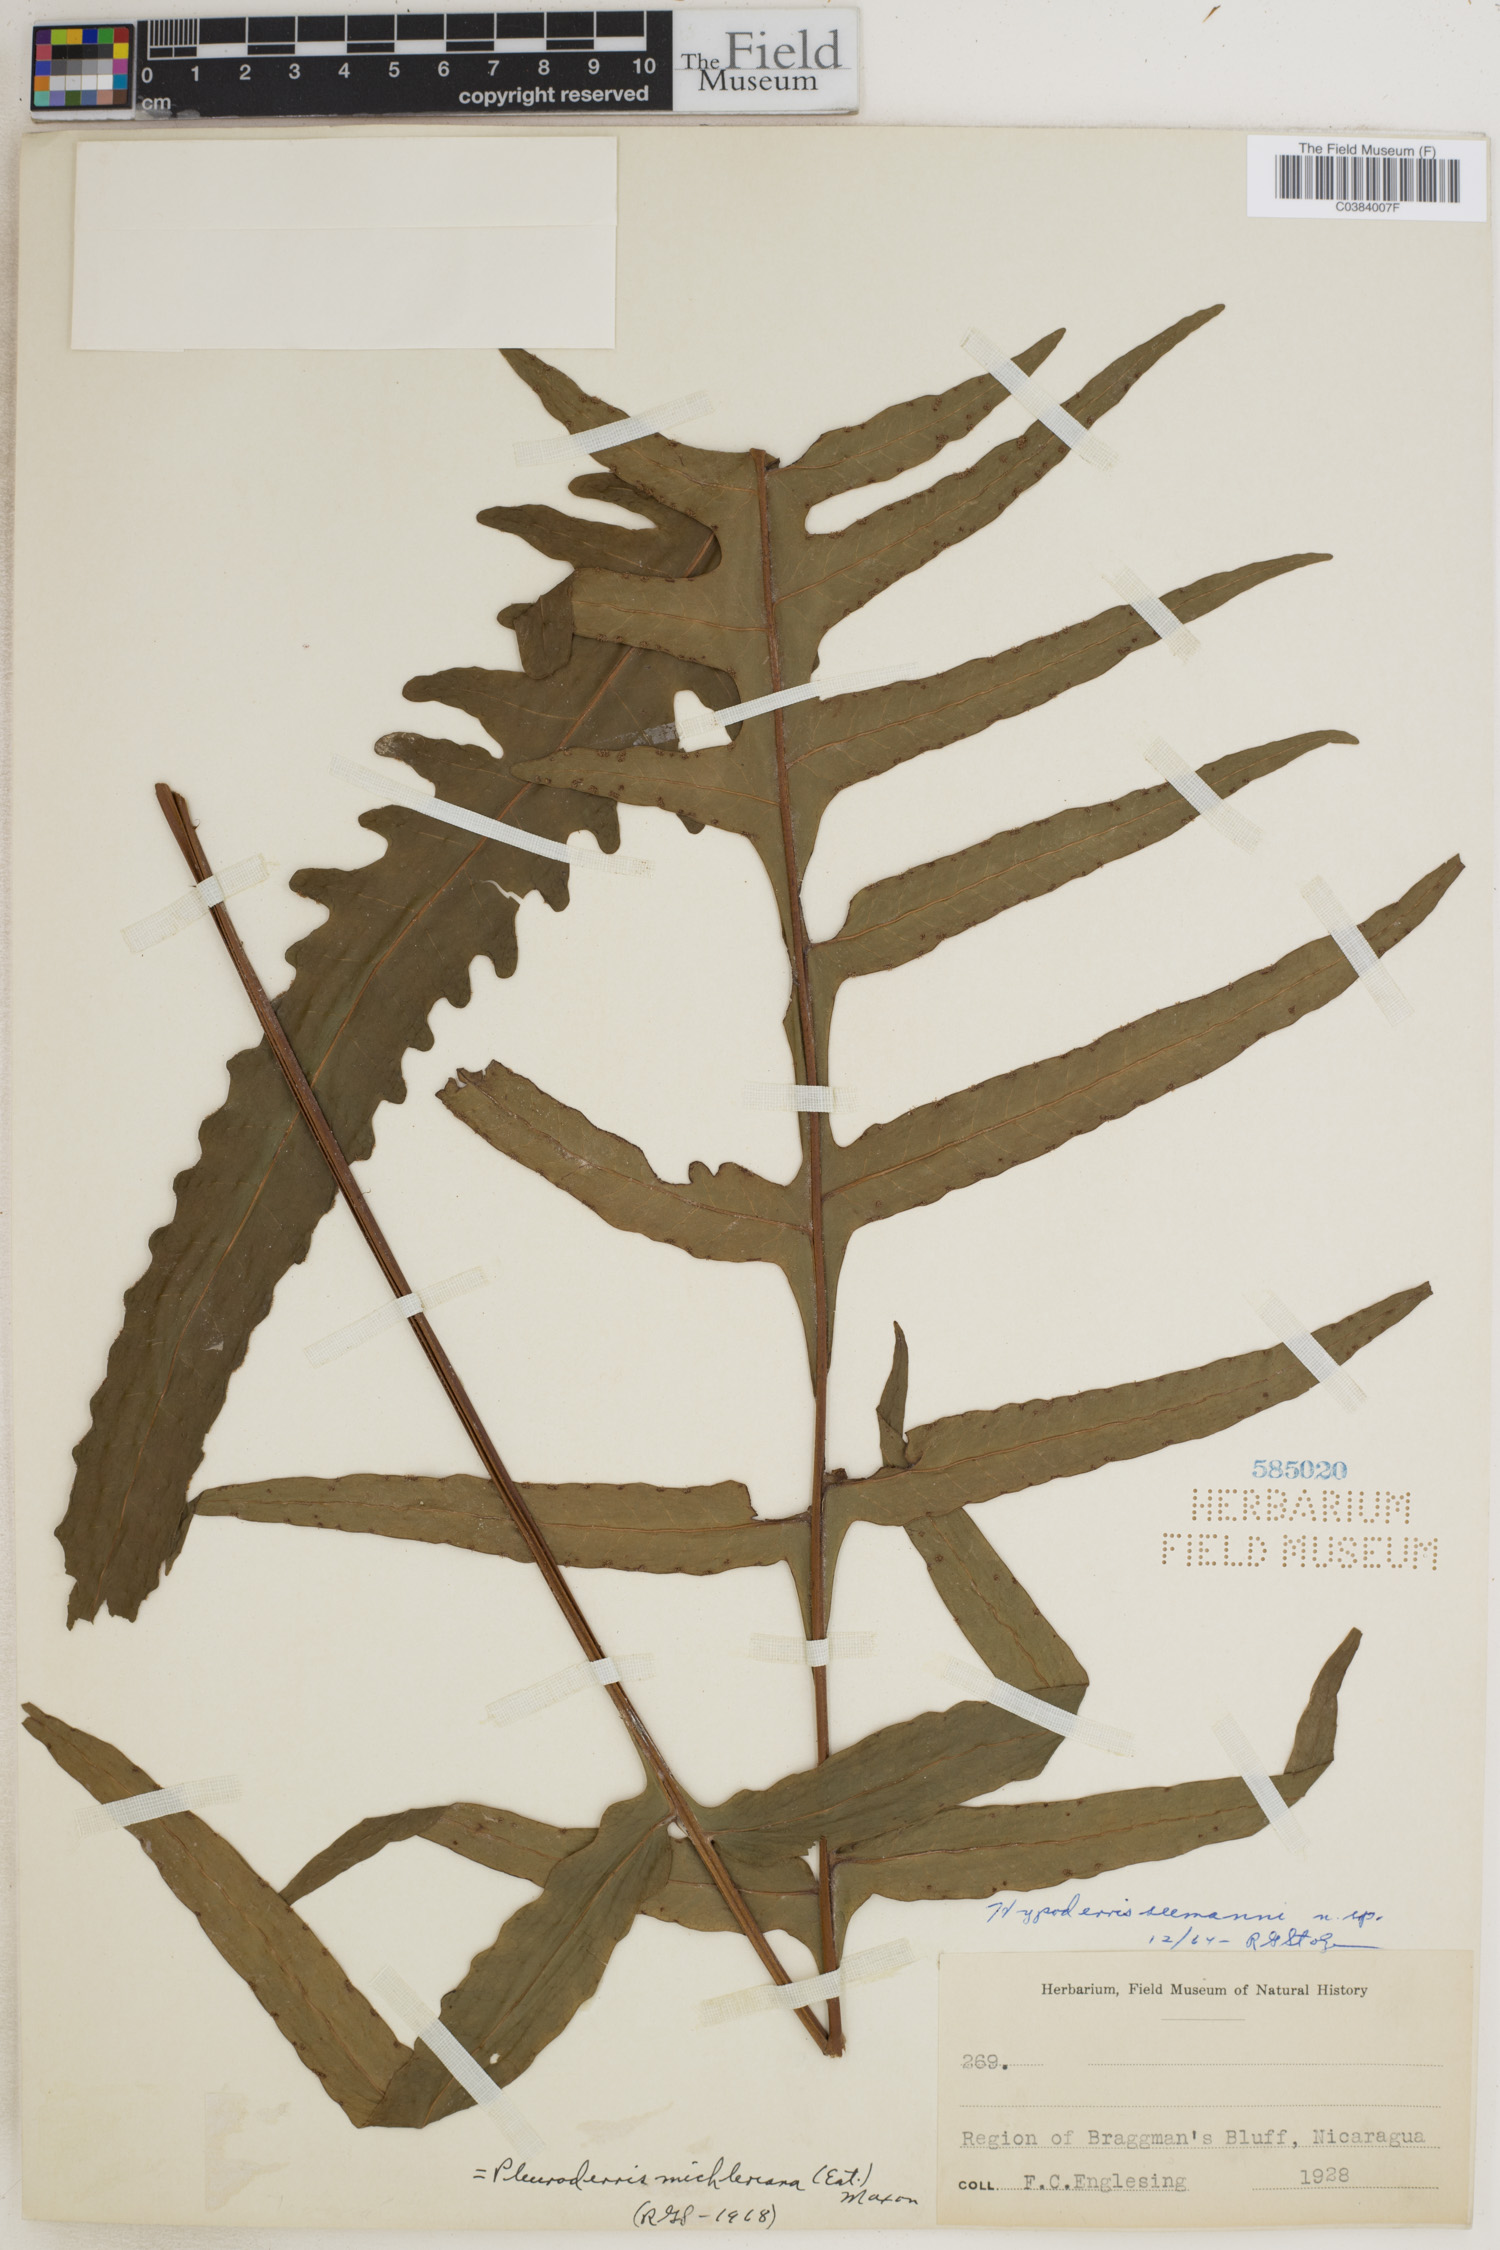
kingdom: Plantae
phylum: Tracheophyta
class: Polypodiopsida
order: Polypodiales
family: Tectariaceae
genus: Tectaria
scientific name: Tectaria michleriana
